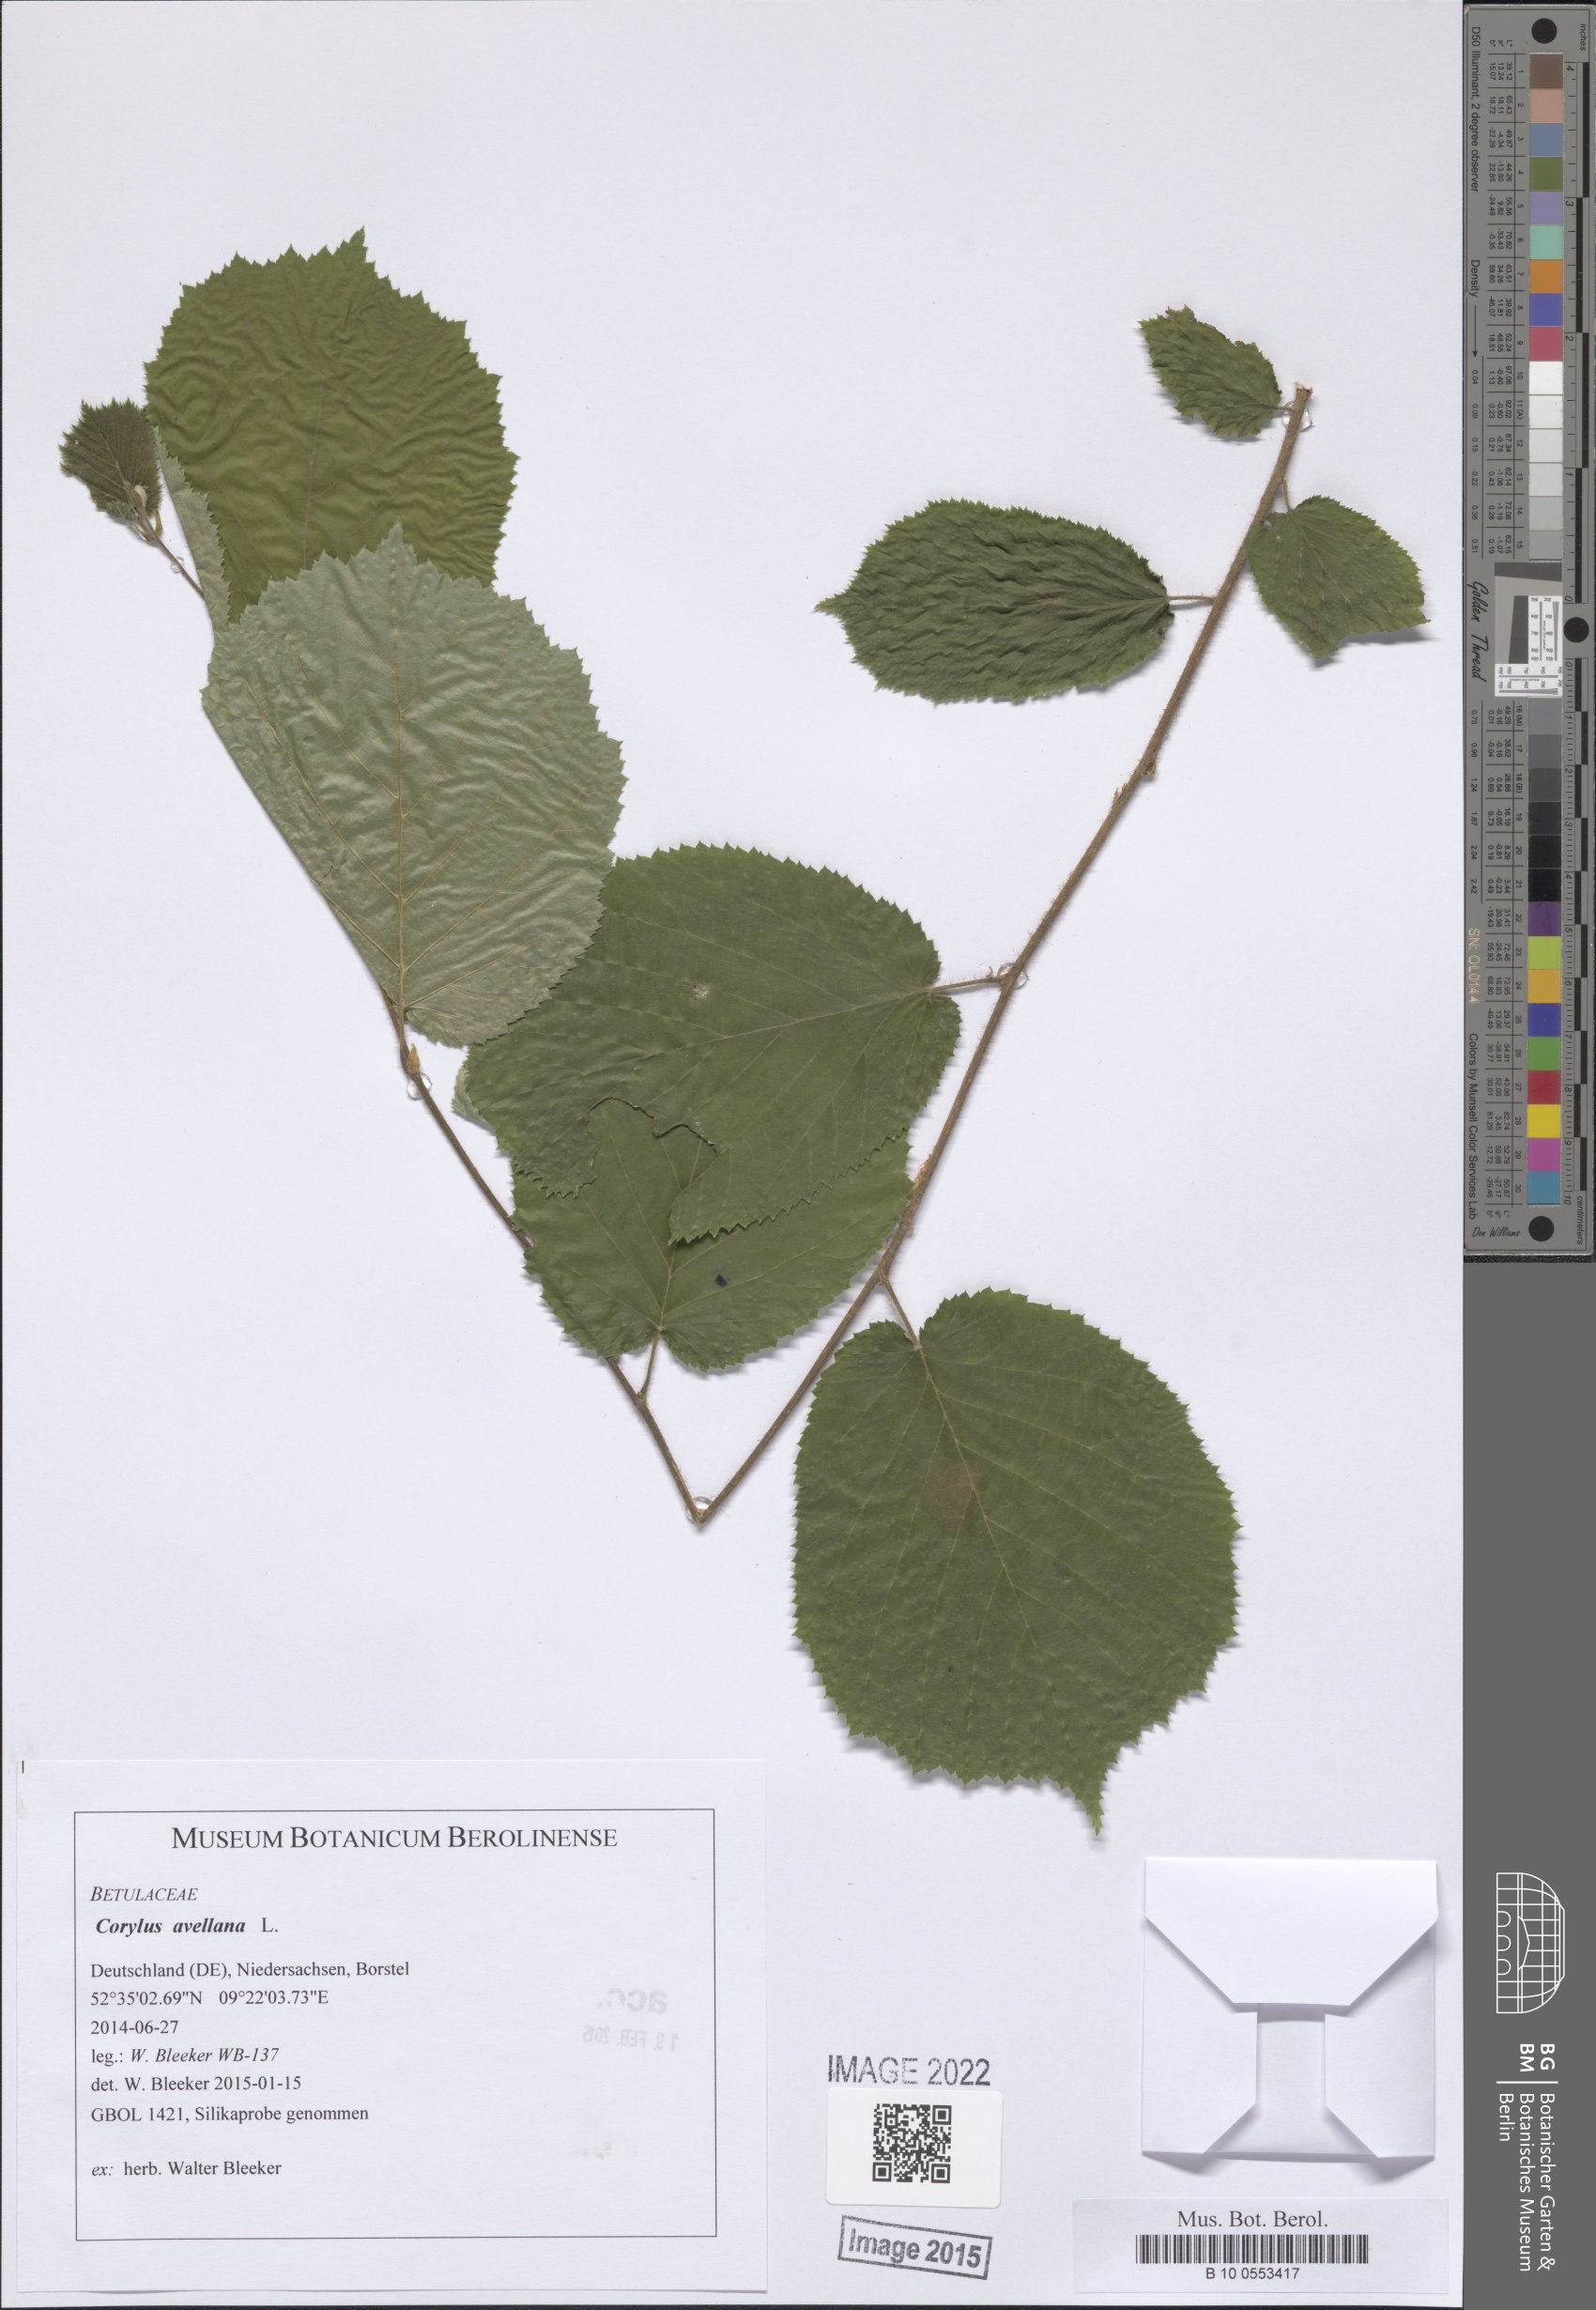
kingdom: Plantae
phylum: Tracheophyta
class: Magnoliopsida
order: Fagales
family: Betulaceae
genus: Corylus
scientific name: Corylus avellana
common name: European hazel
